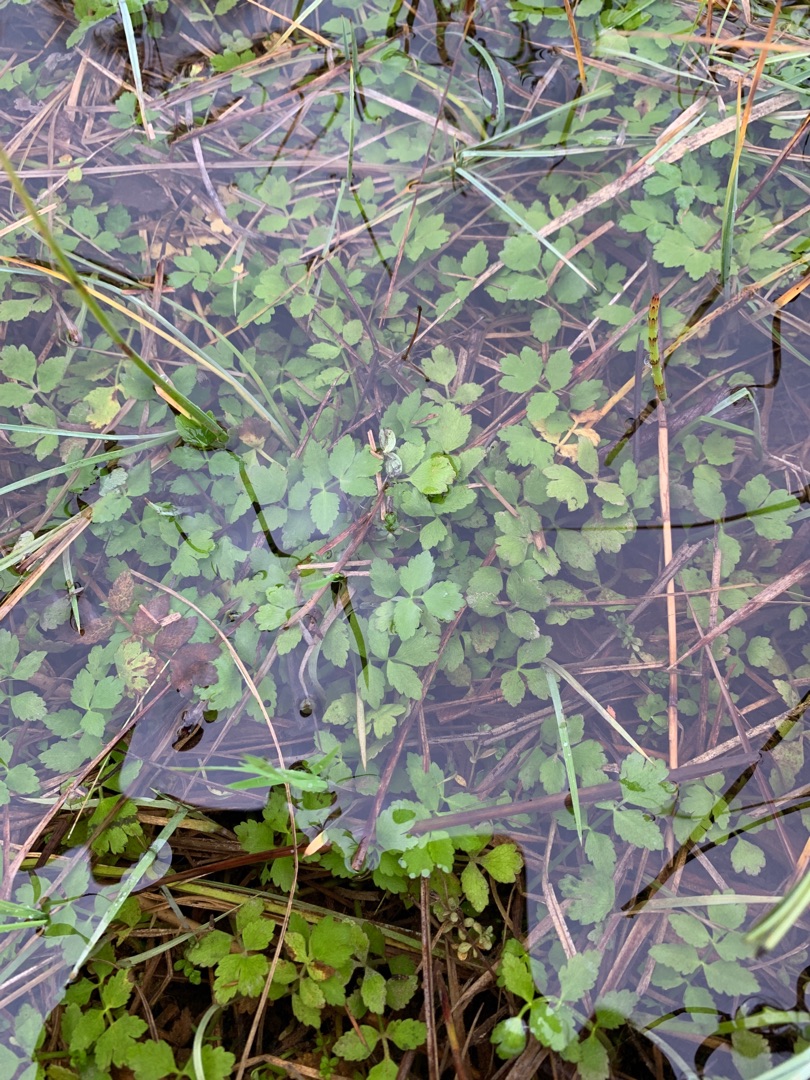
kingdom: Plantae
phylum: Tracheophyta
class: Magnoliopsida
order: Apiales
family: Apiaceae
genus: Berula
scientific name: Berula erecta
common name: Sideskærm
